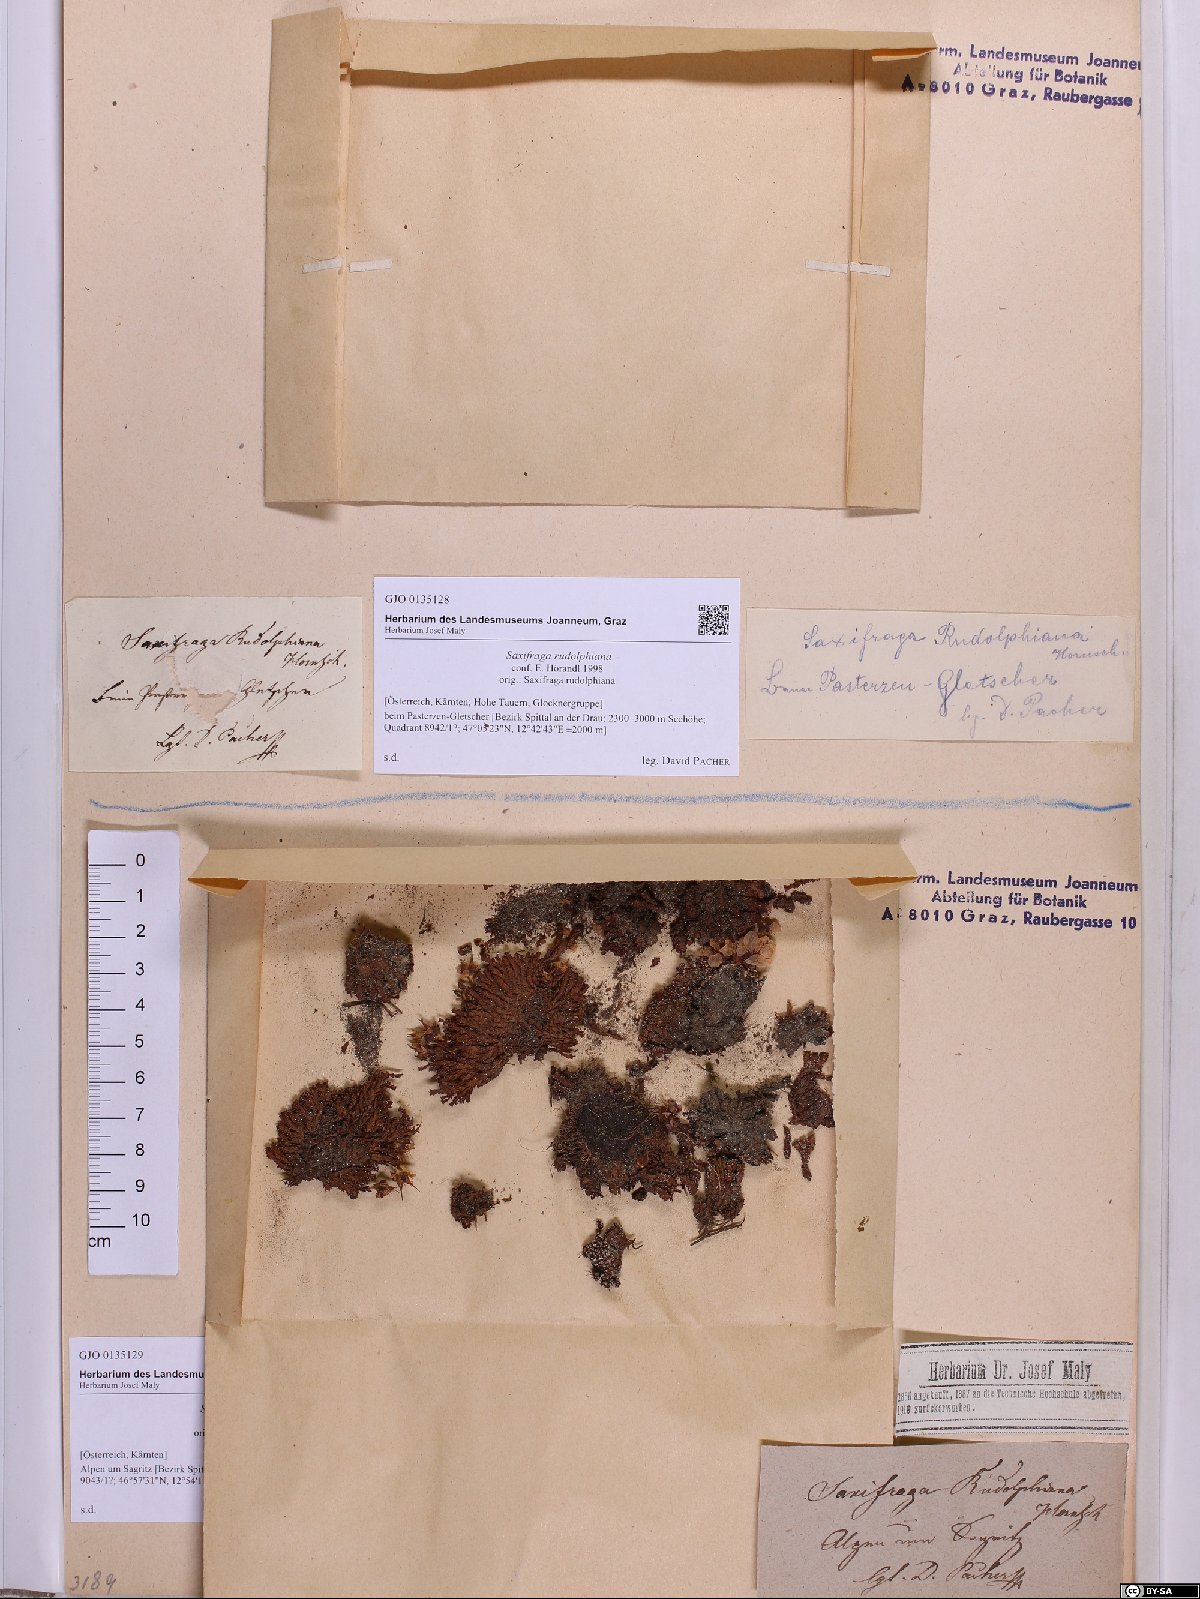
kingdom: Plantae
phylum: Tracheophyta
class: Magnoliopsida
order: Saxifragales
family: Saxifragaceae
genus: Saxifraga
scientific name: Saxifraga oppositifolia
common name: Purple saxifrage
